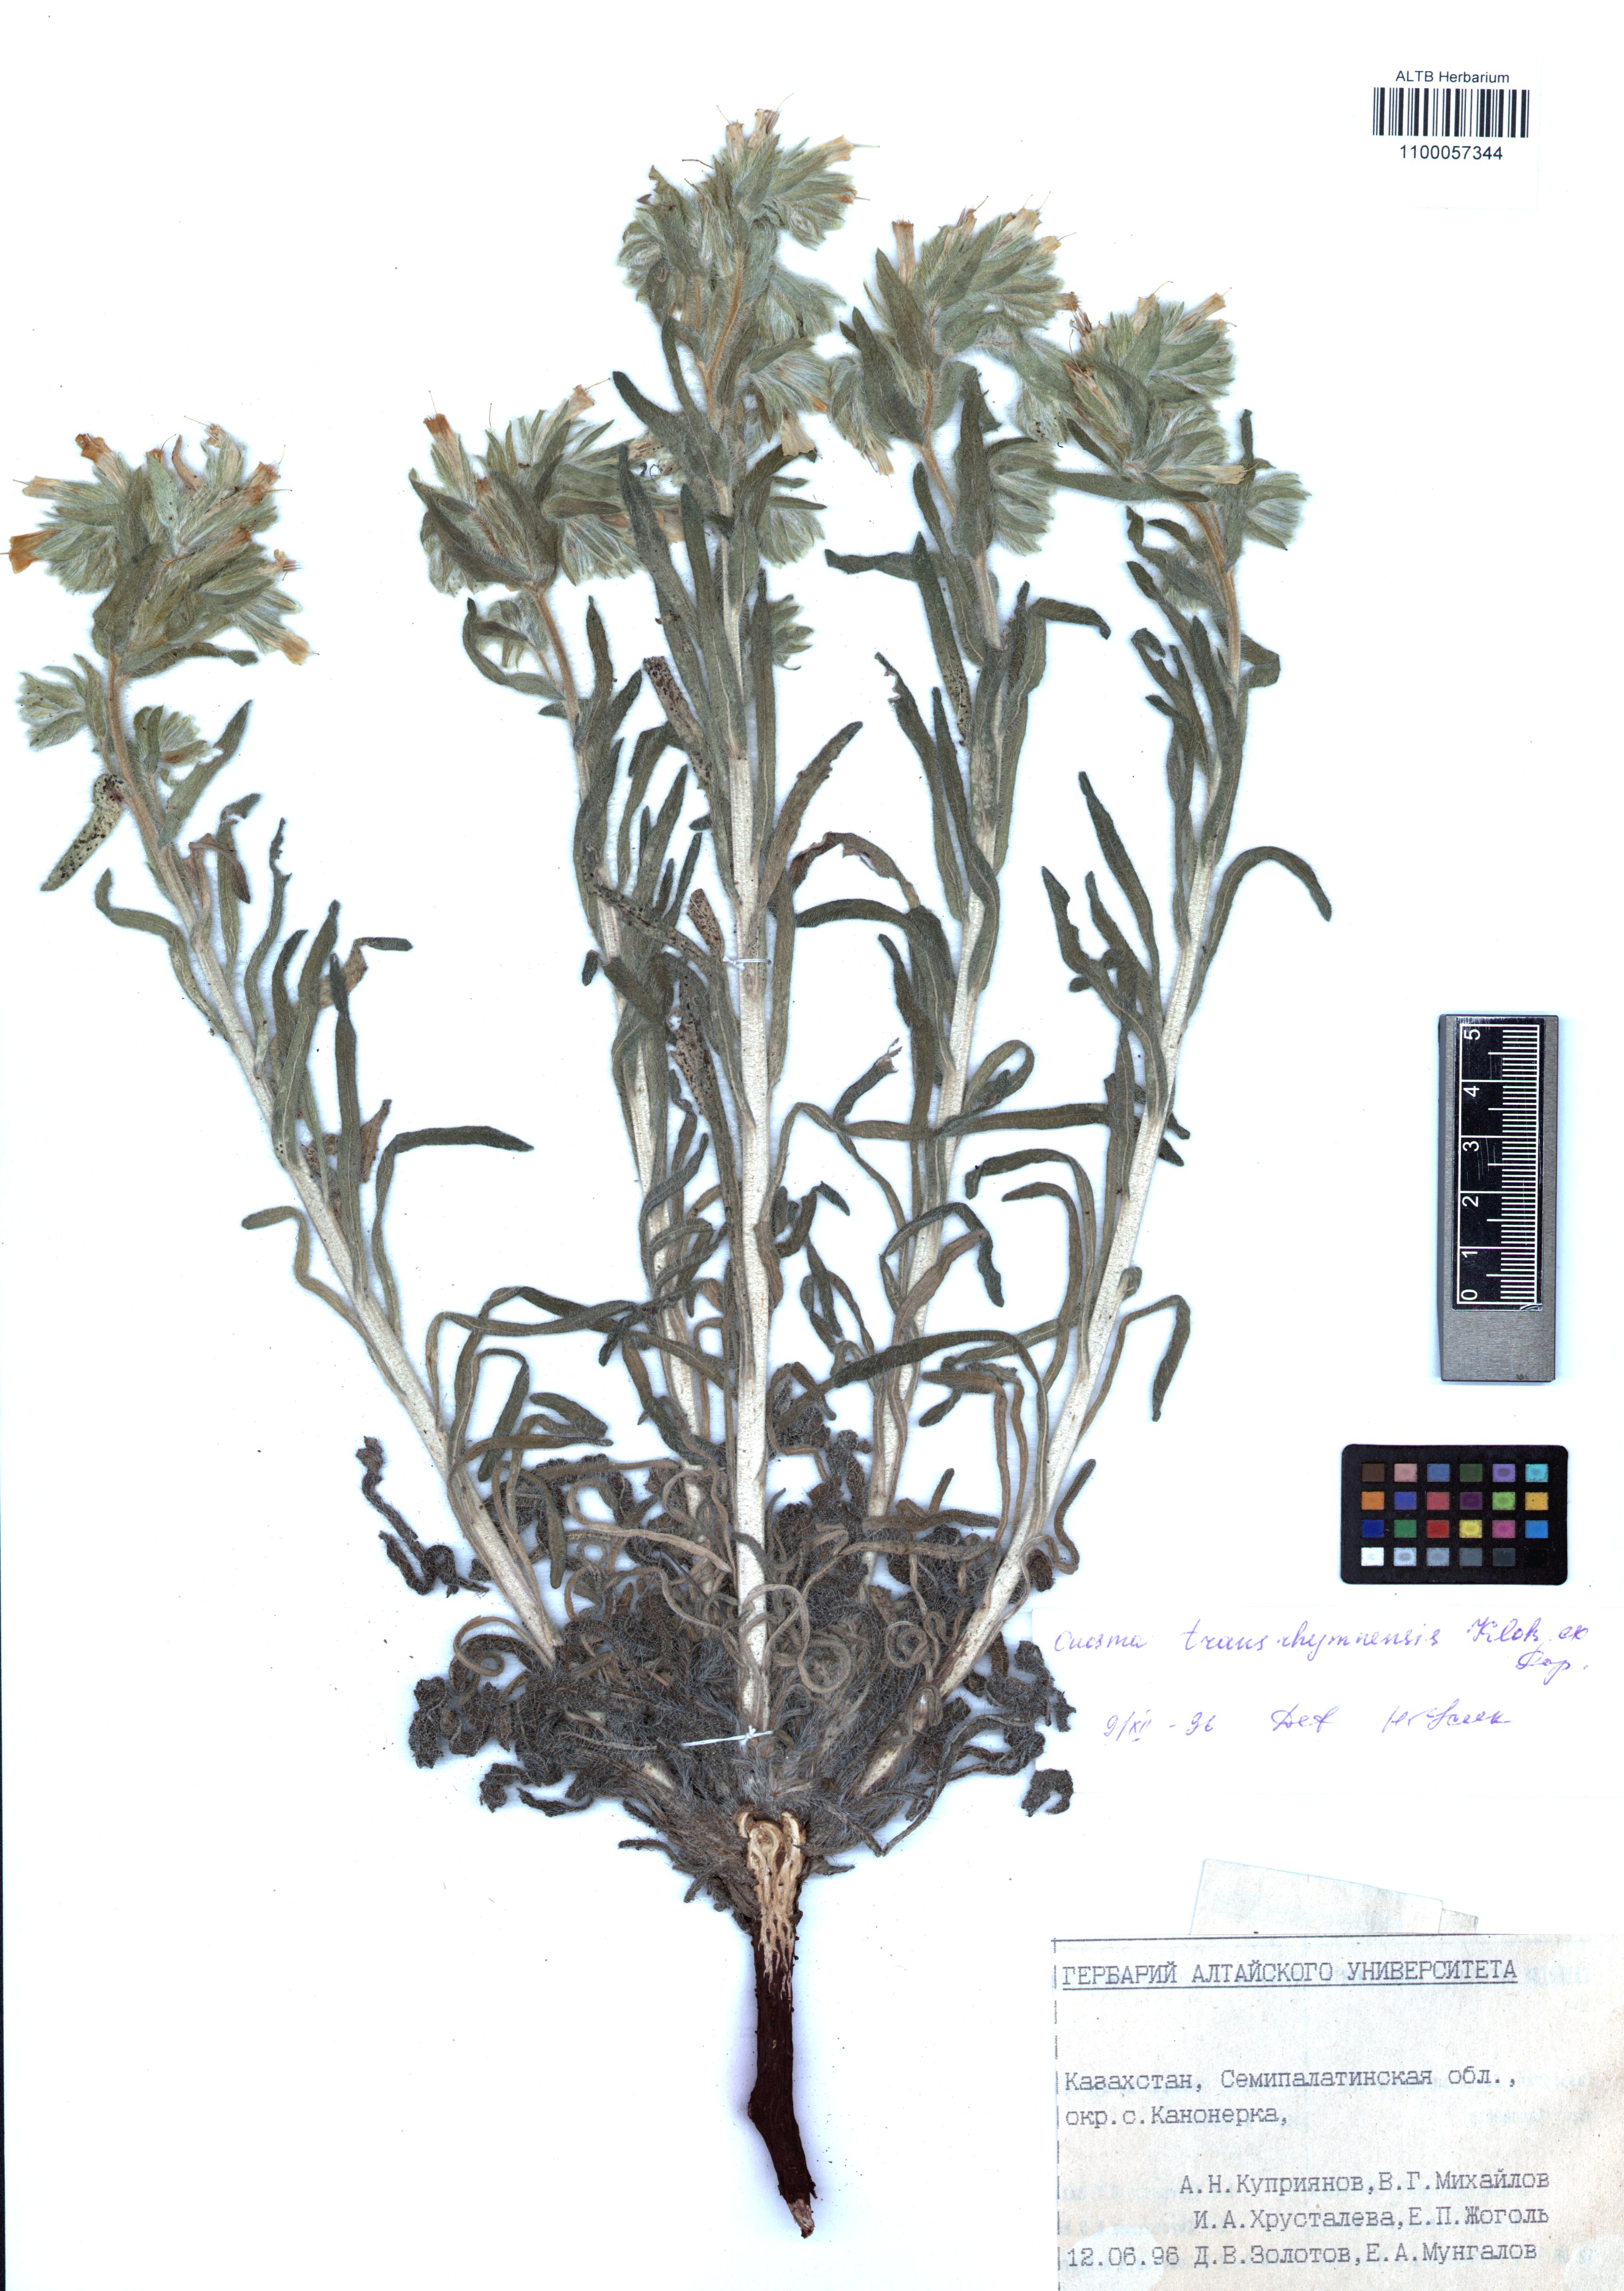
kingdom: Plantae
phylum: Tracheophyta
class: Magnoliopsida
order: Boraginales
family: Boraginaceae
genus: Onosma
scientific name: Onosma transrhymnensis
